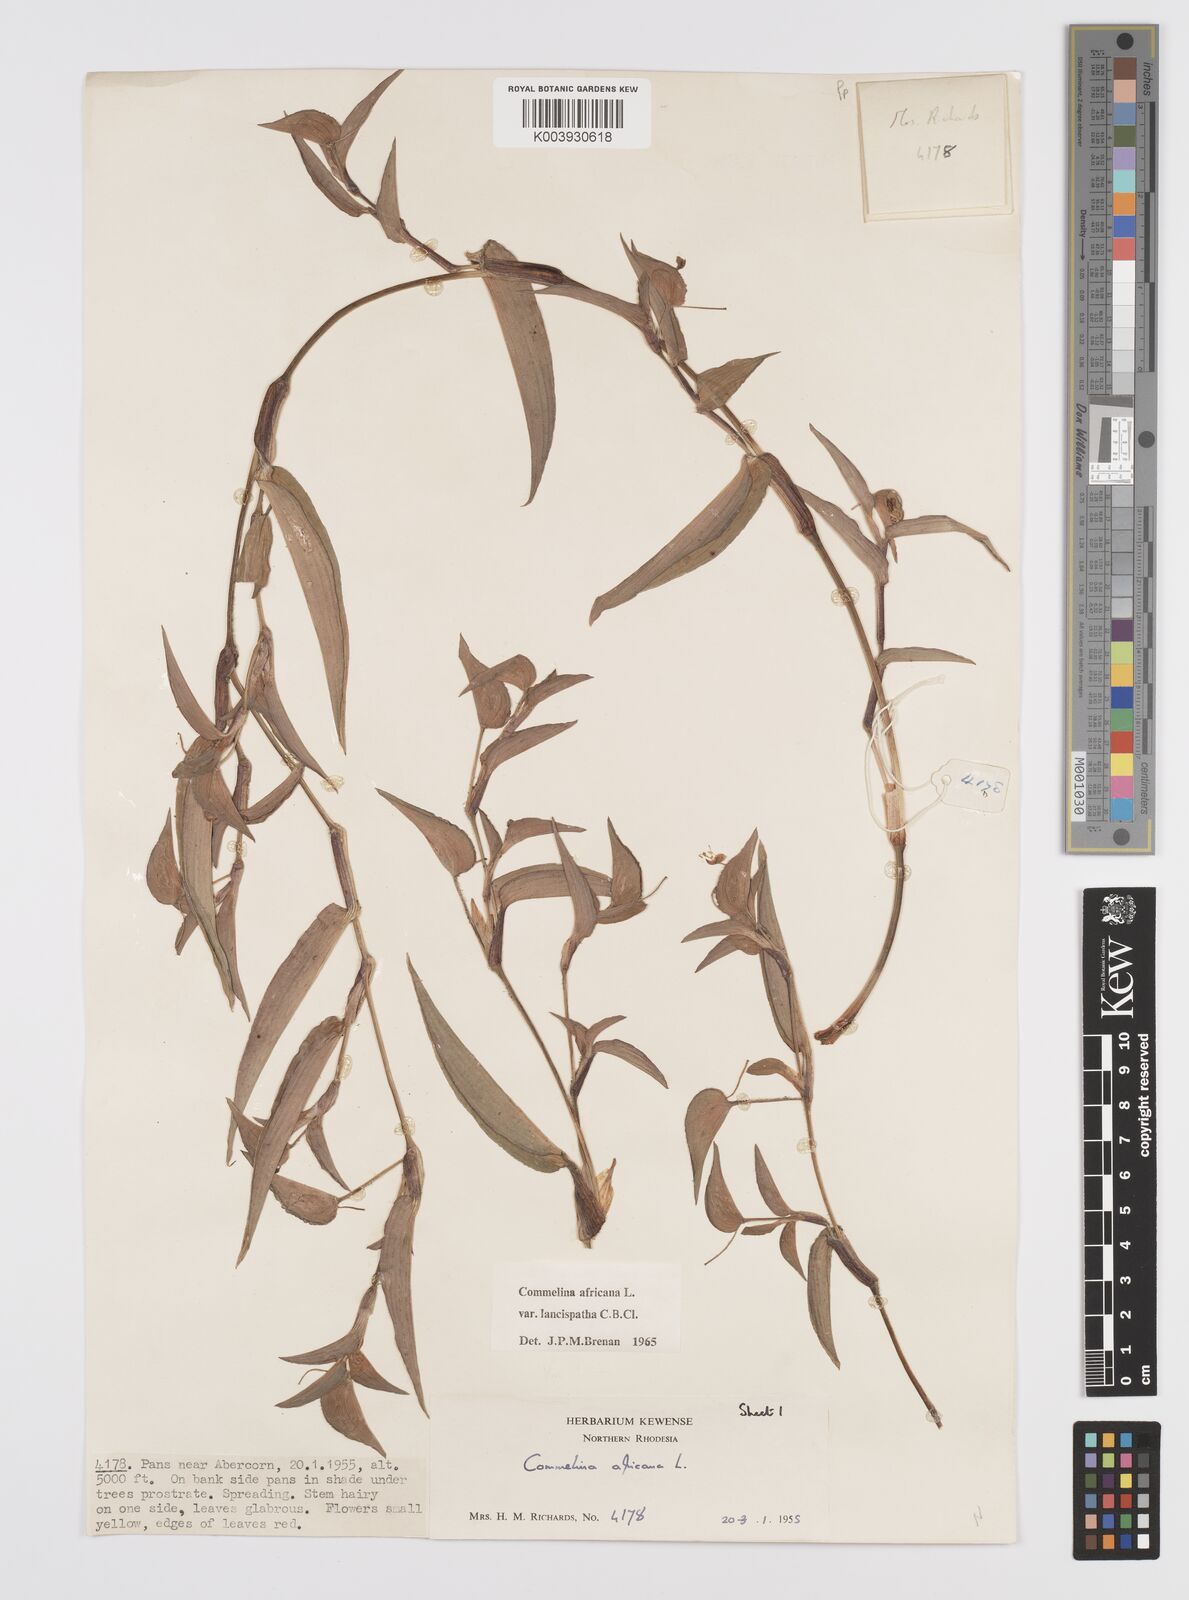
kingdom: Plantae
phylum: Tracheophyta
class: Liliopsida
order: Commelinales
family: Commelinaceae
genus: Commelina
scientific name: Commelina africana
